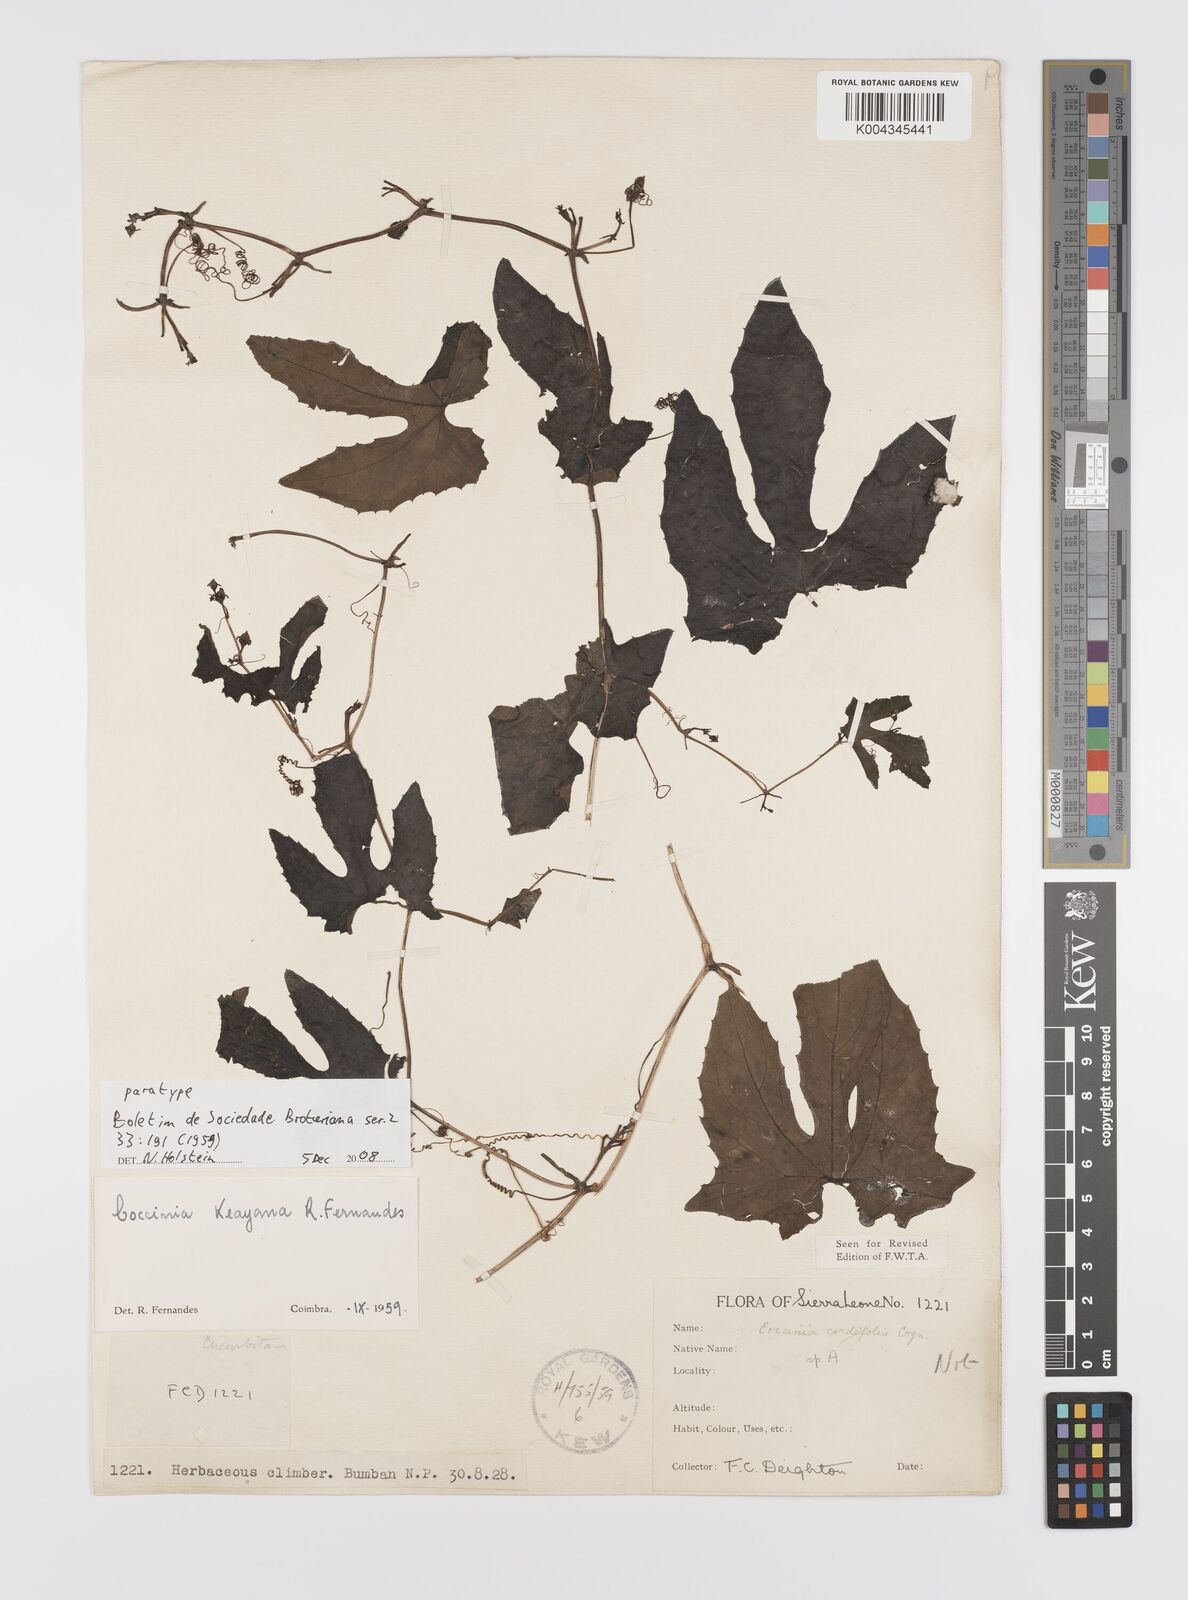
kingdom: Plantae
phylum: Tracheophyta
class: Magnoliopsida
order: Cucurbitales
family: Cucurbitaceae
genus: Coccinia
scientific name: Coccinia keayana
